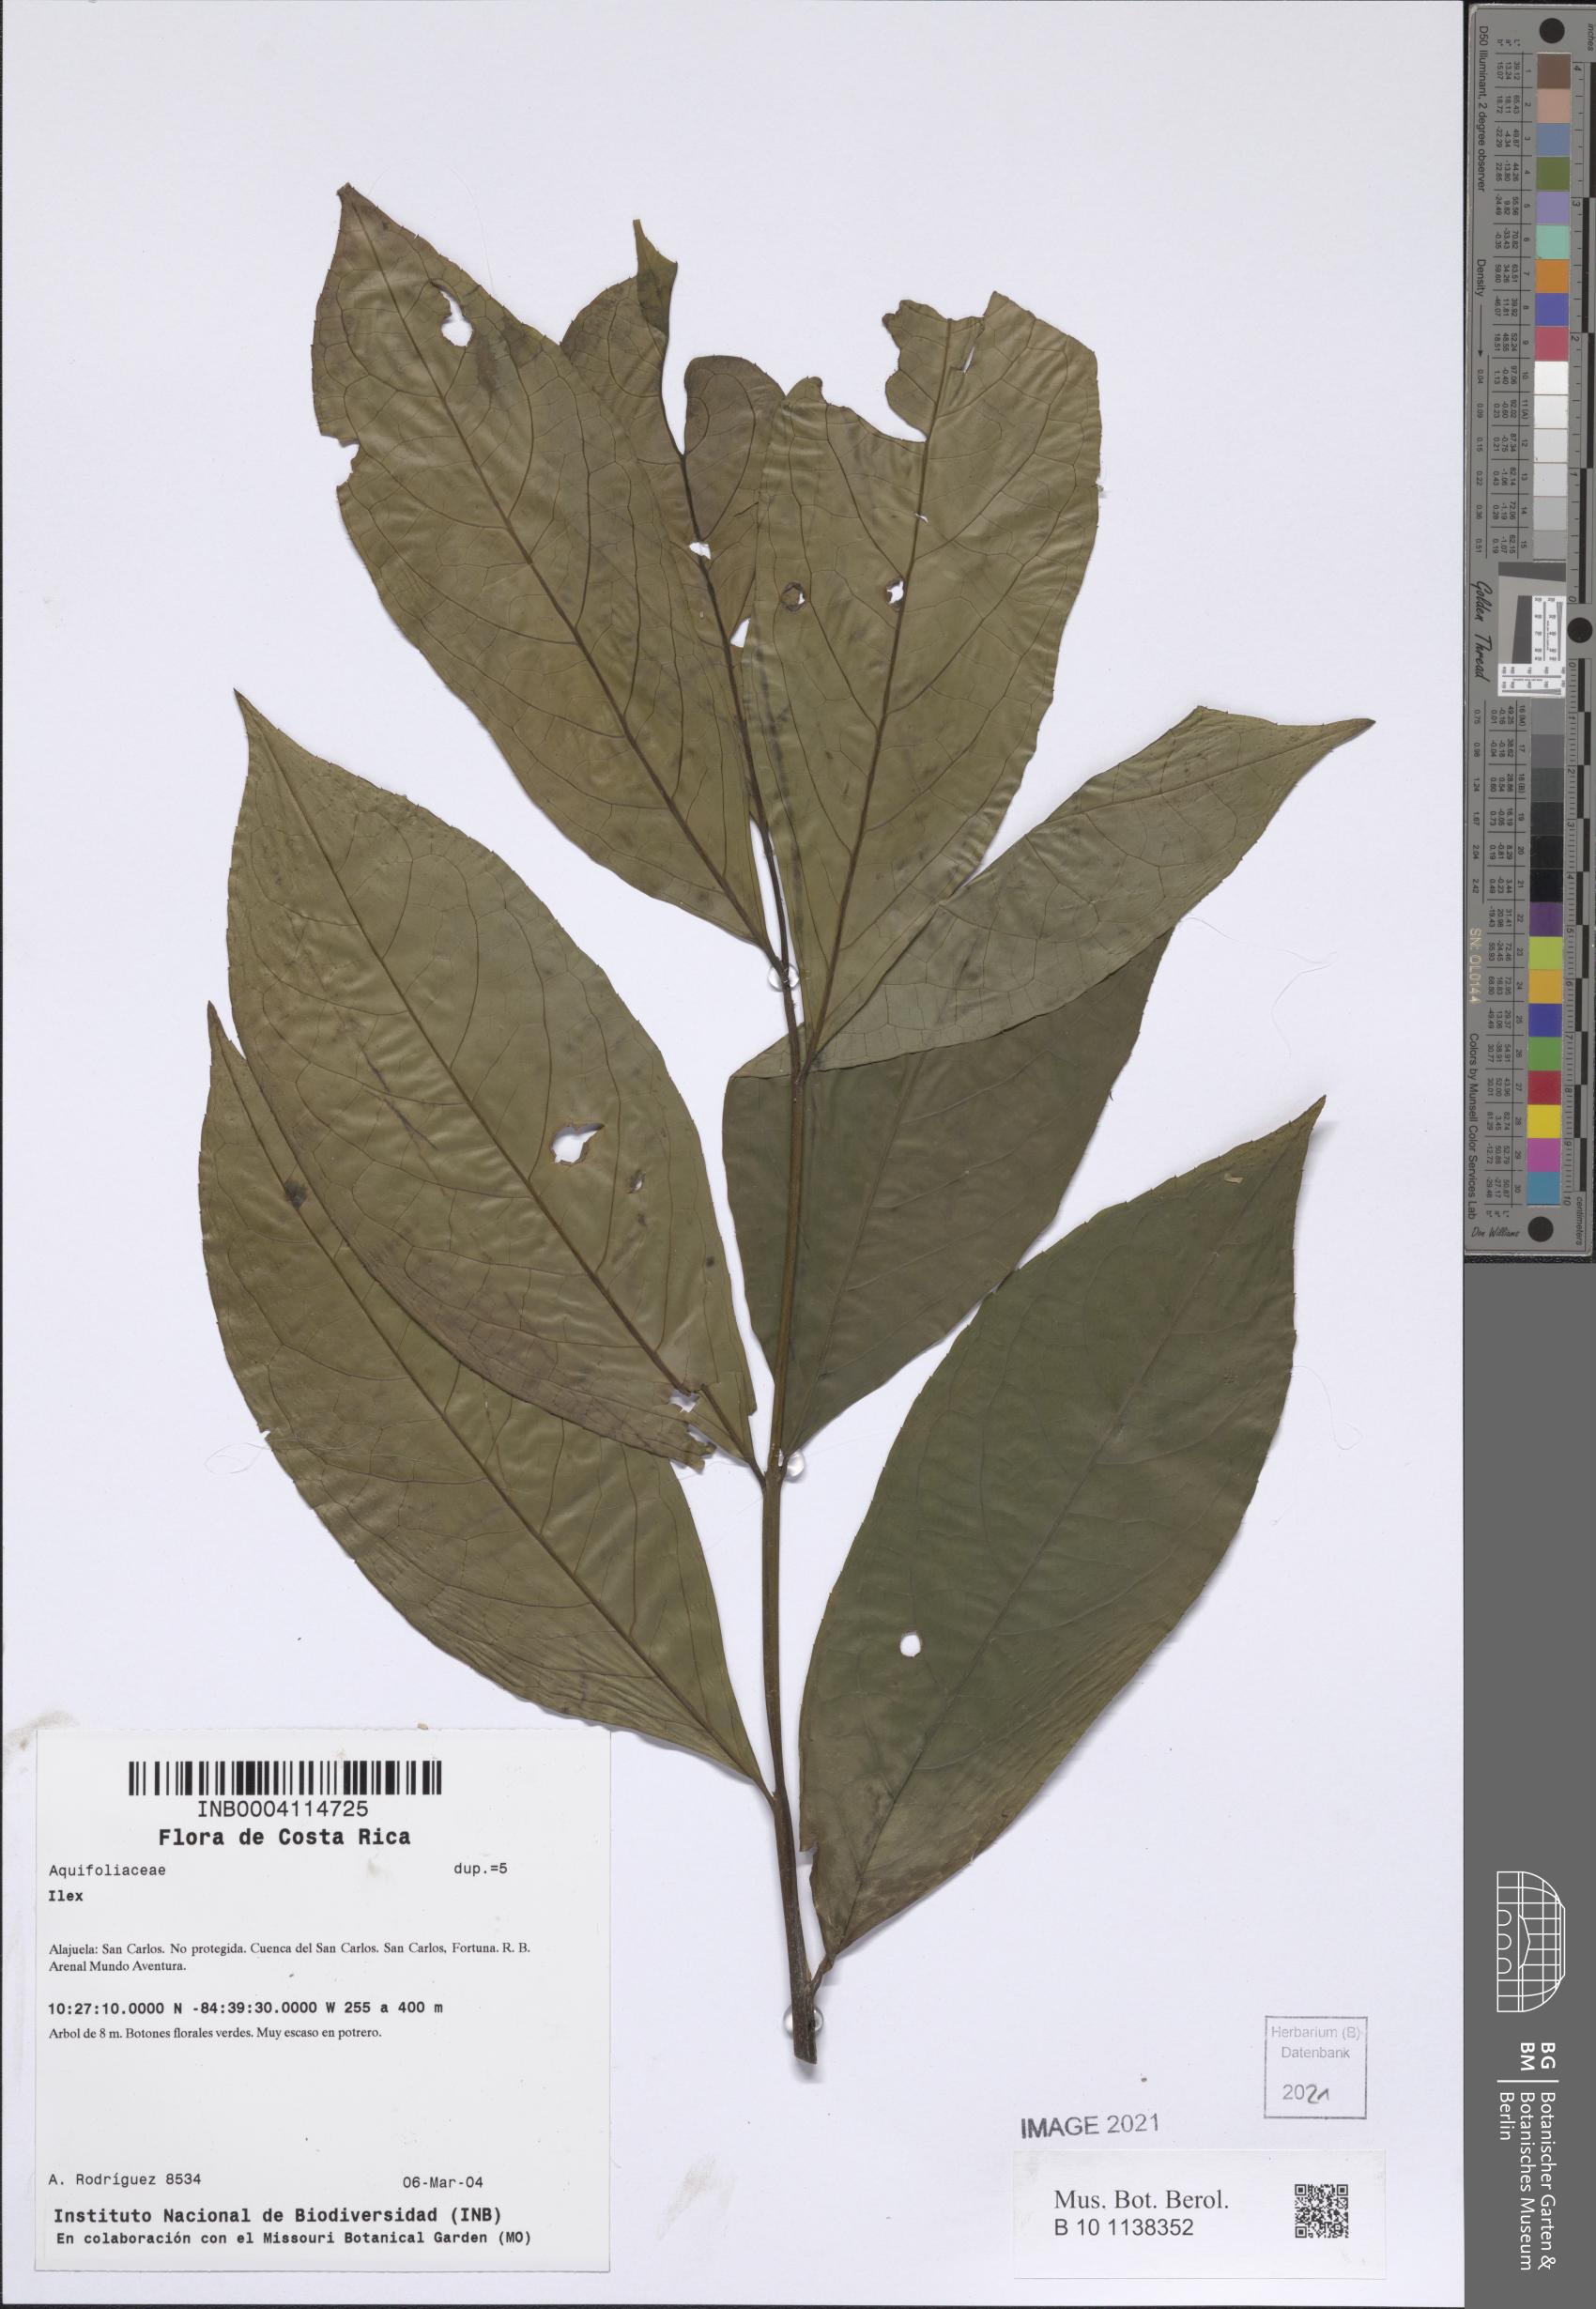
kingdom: Plantae
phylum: Tracheophyta
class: Magnoliopsida
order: Aquifoliales
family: Aquifoliaceae
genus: Ilex
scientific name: Ilex
